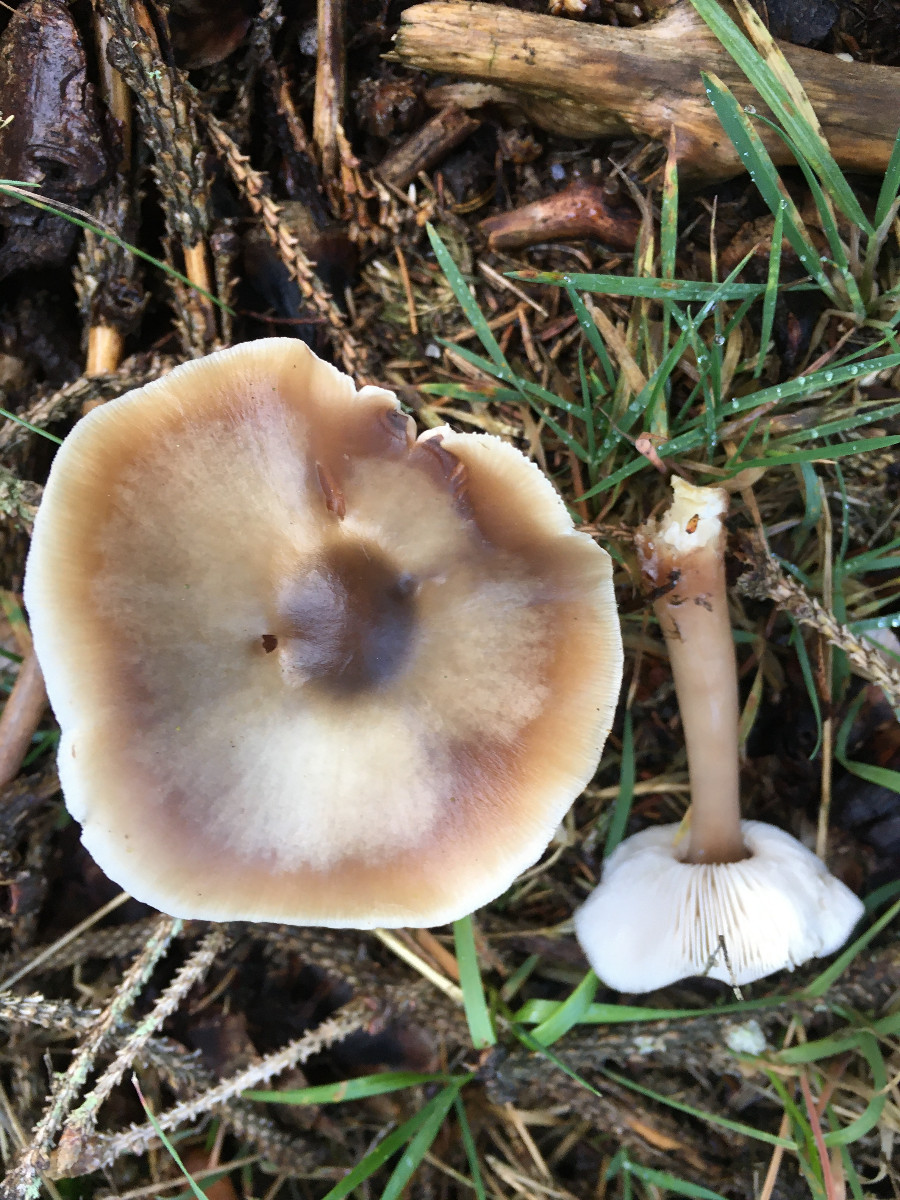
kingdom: Fungi
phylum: Basidiomycota
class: Agaricomycetes
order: Agaricales
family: Omphalotaceae
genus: Rhodocollybia
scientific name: Rhodocollybia asema
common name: horngrå fladhat
